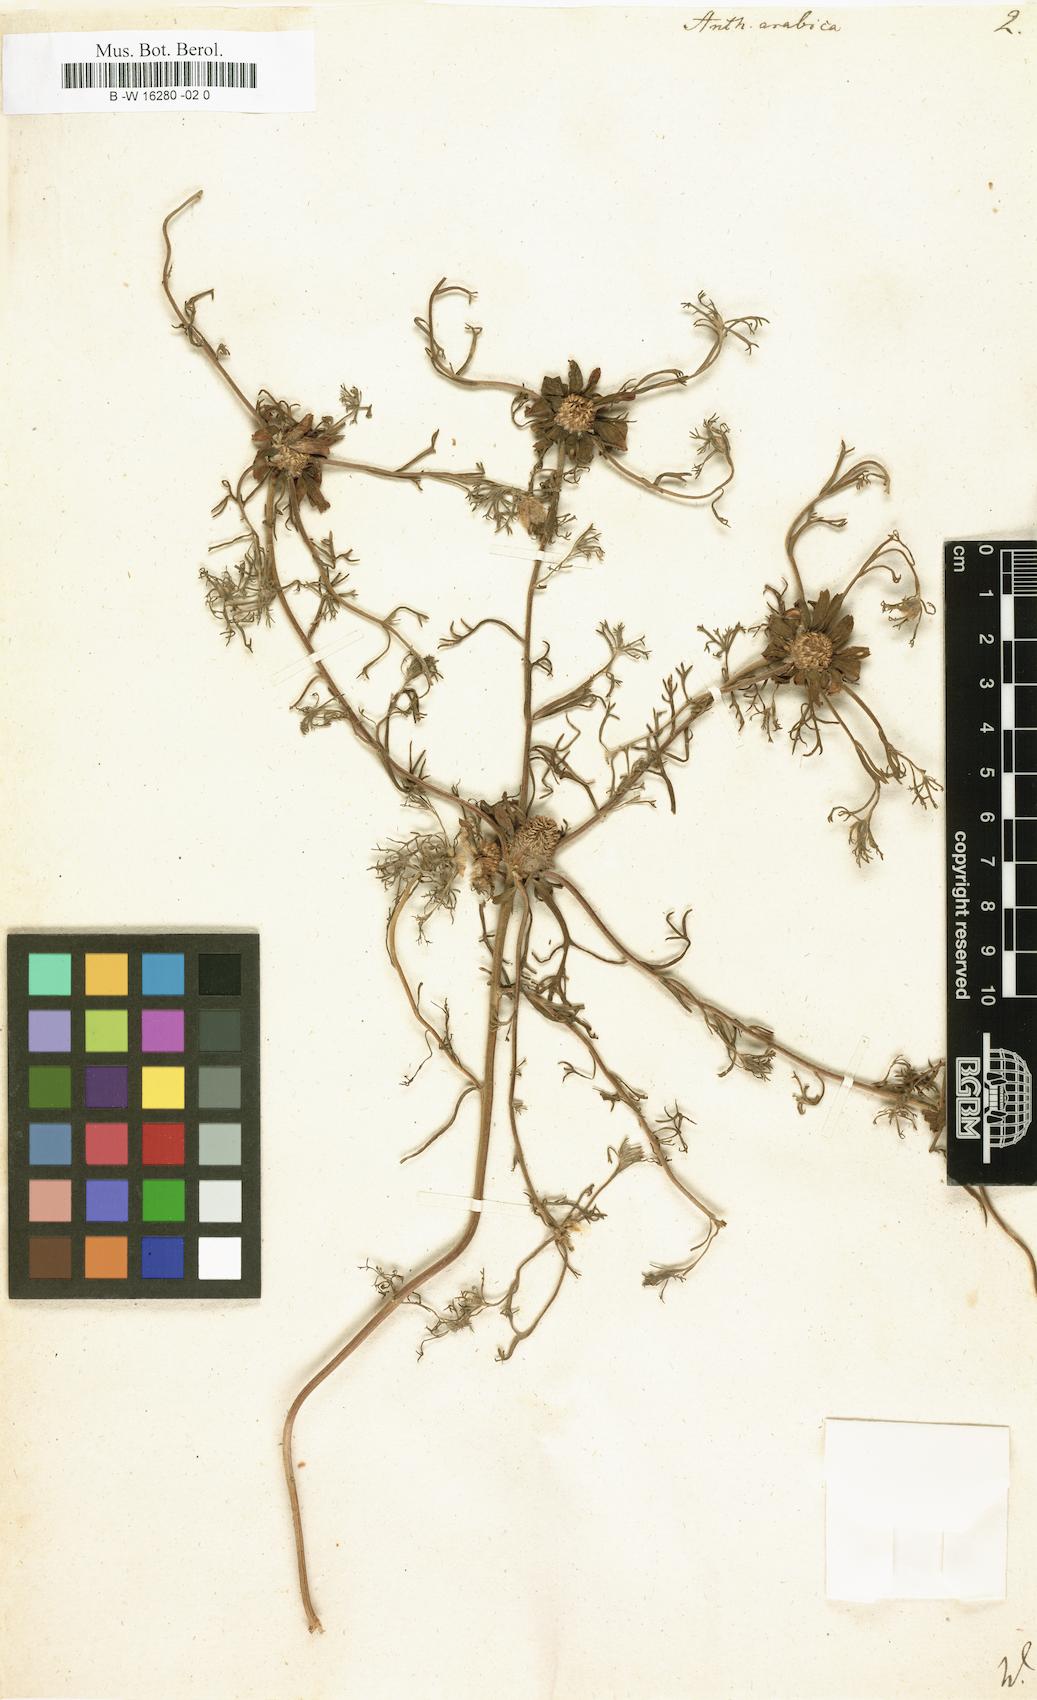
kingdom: Plantae
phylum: Tracheophyta
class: Magnoliopsida
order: Asterales
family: Asteraceae
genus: Cladanthus
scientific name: Cladanthus arabicus
